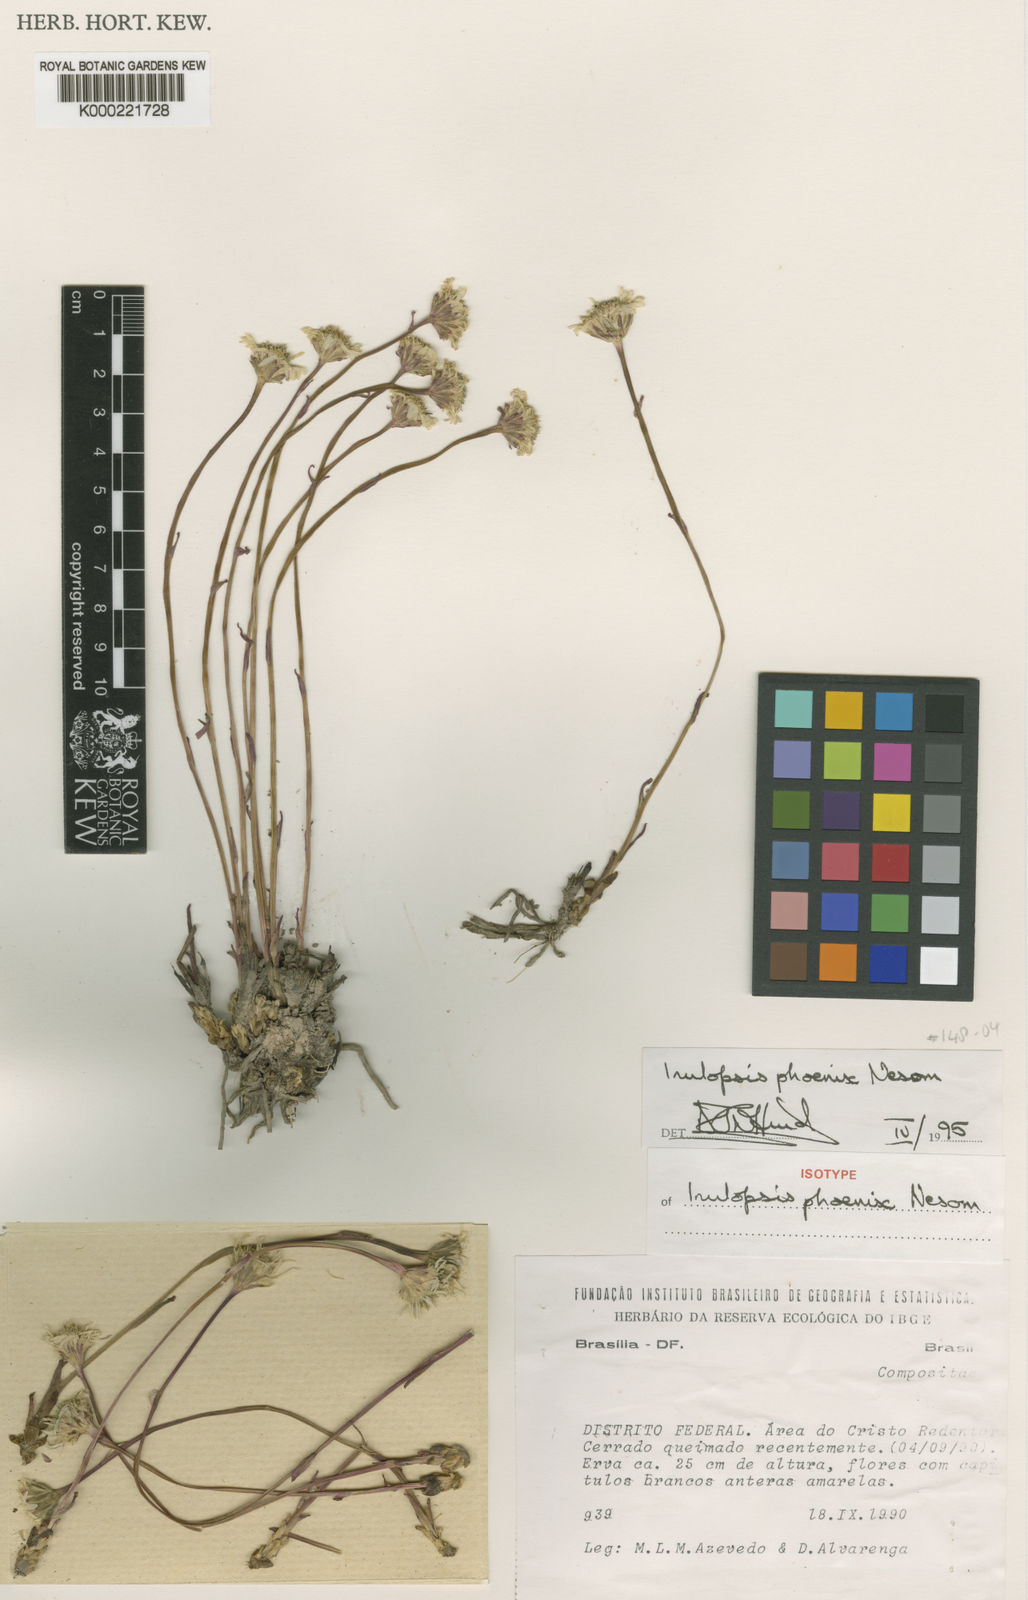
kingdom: Plantae
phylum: Tracheophyta
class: Magnoliopsida
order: Asterales
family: Asteraceae
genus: Inulopsis
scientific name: Inulopsis phoenix
